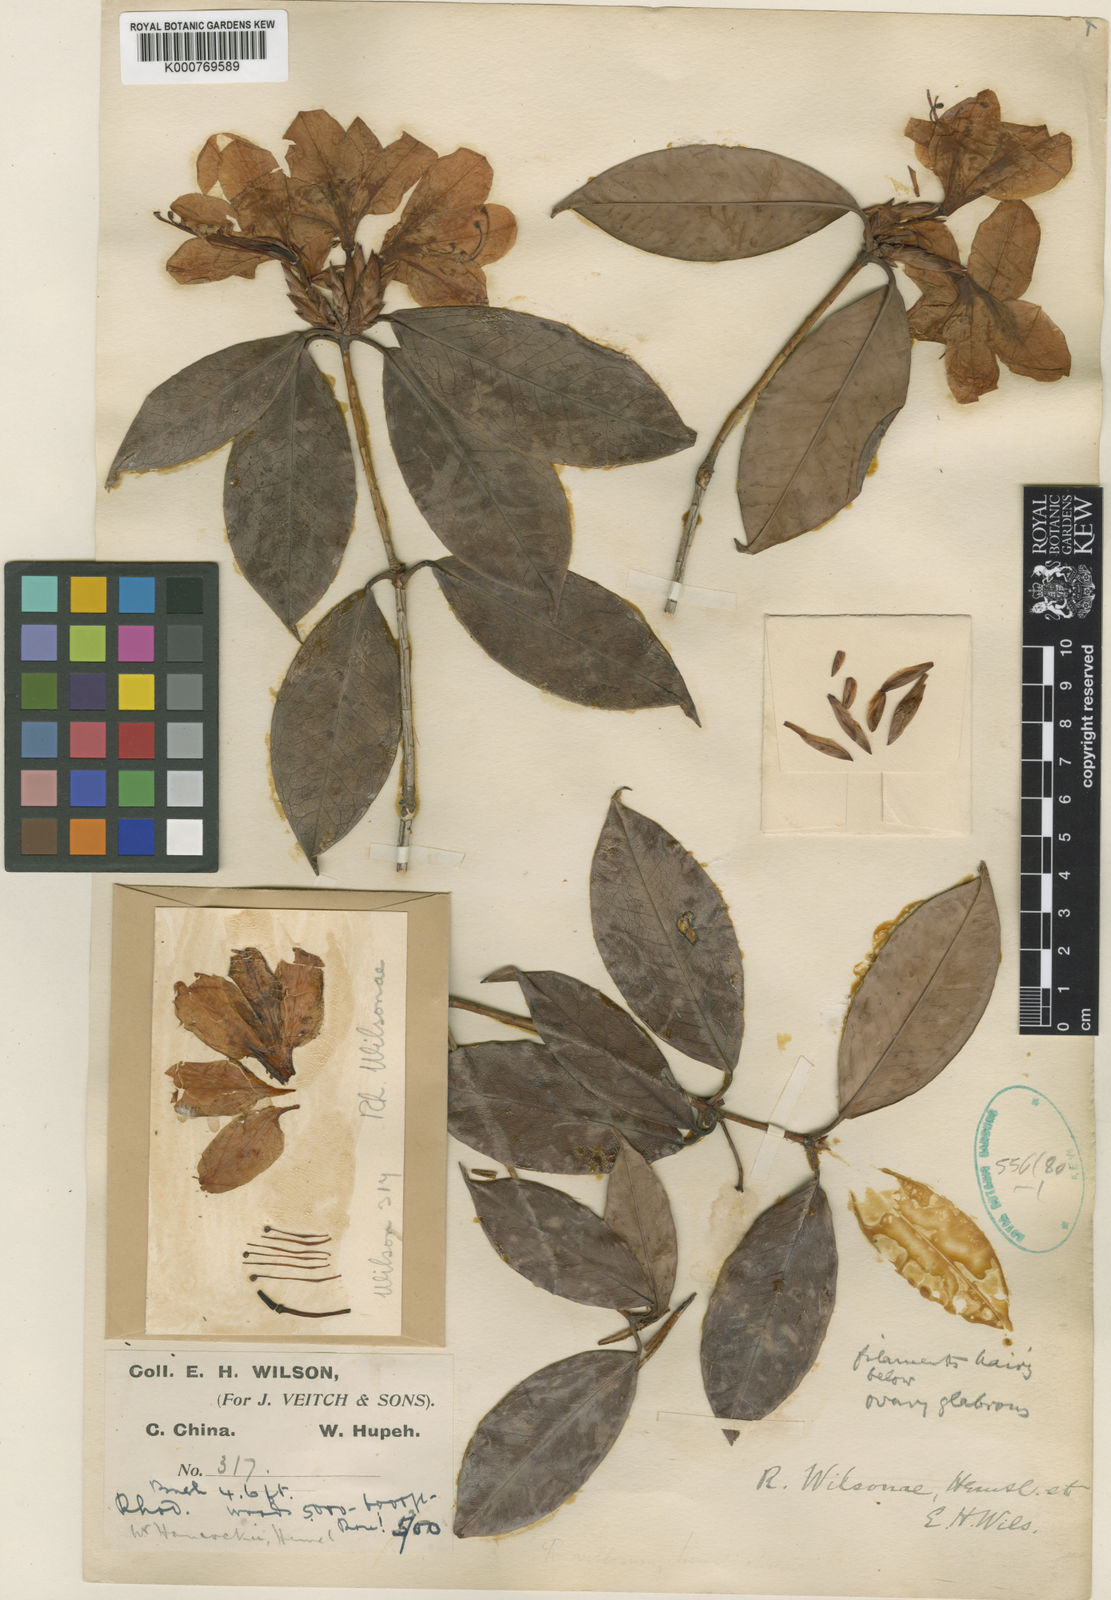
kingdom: Plantae
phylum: Tracheophyta
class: Magnoliopsida
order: Ericales
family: Ericaceae
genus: Rhododendron
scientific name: Rhododendron latoucheae
